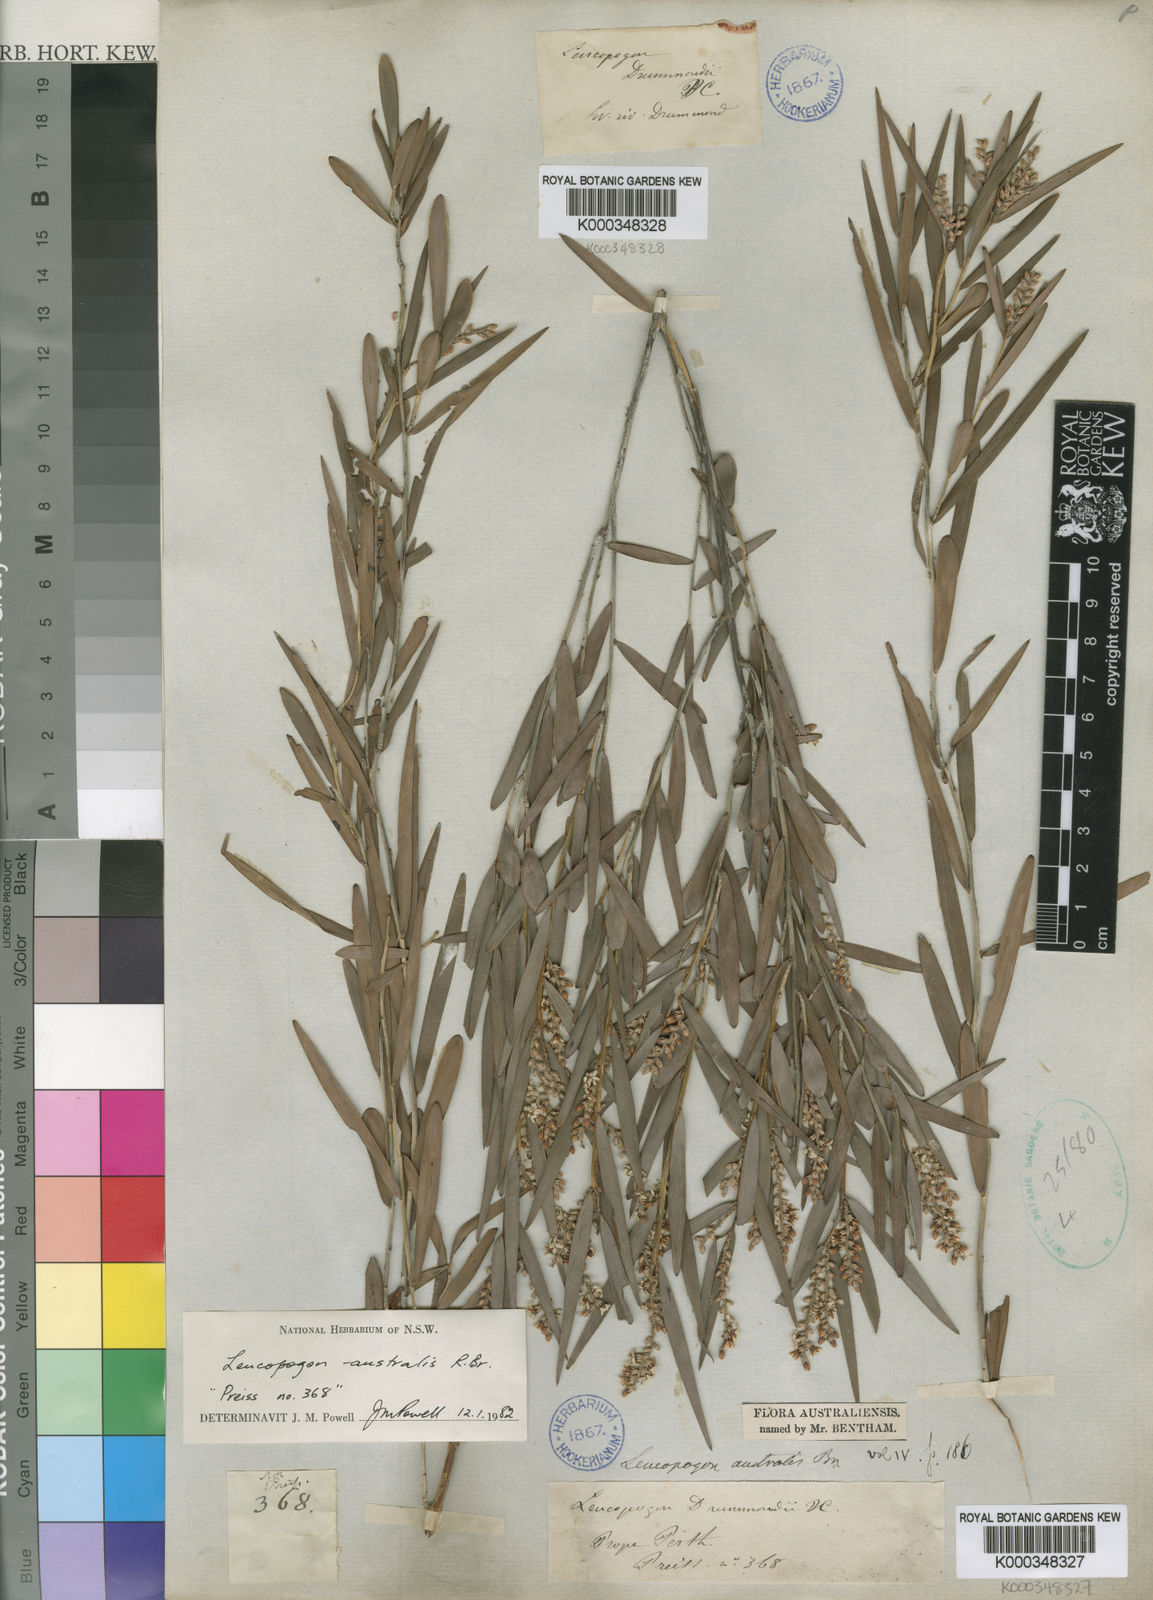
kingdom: Plantae
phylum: Tracheophyta
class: Magnoliopsida
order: Ericales
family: Ericaceae
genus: Leucopogon
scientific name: Leucopogon australis
